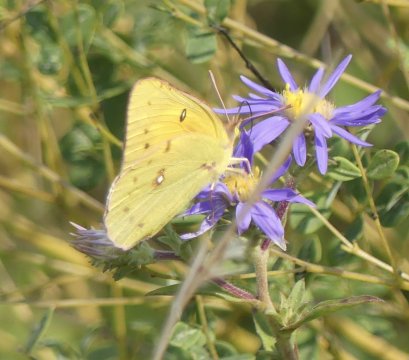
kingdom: Animalia
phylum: Arthropoda
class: Insecta
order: Lepidoptera
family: Pieridae
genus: Colias
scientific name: Colias eurytheme
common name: Orange Sulphur
